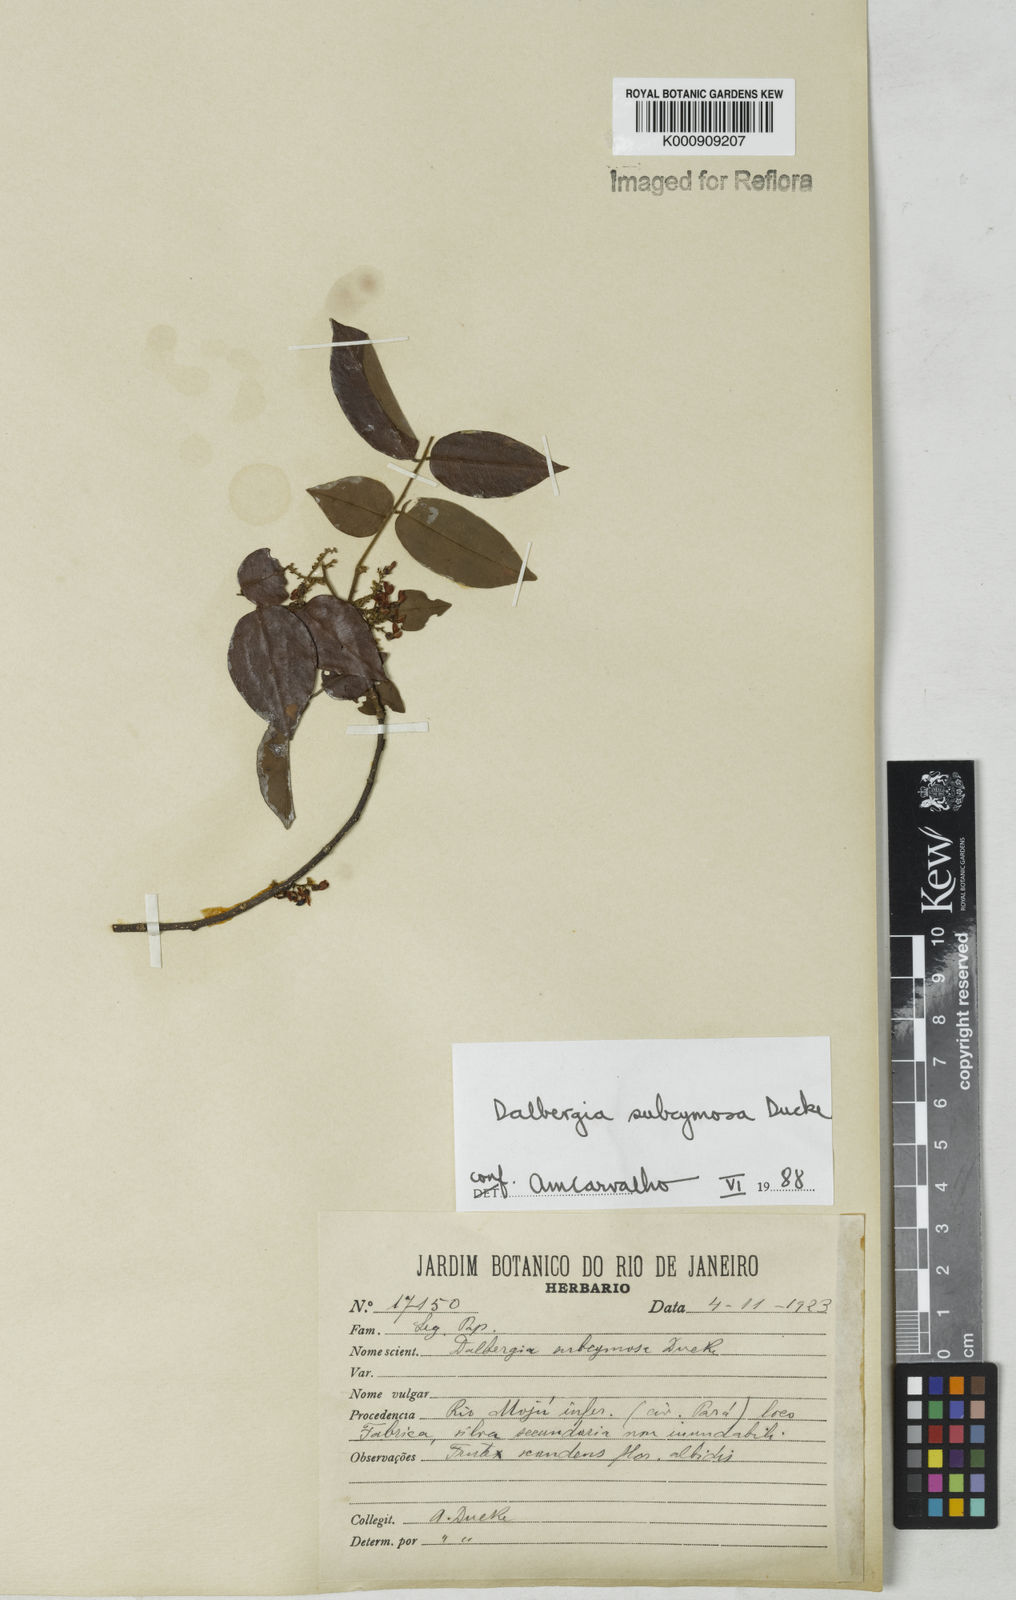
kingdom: Plantae
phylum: Tracheophyta
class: Magnoliopsida
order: Fabales
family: Fabaceae
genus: Dalbergia
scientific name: Dalbergia subcymosa
